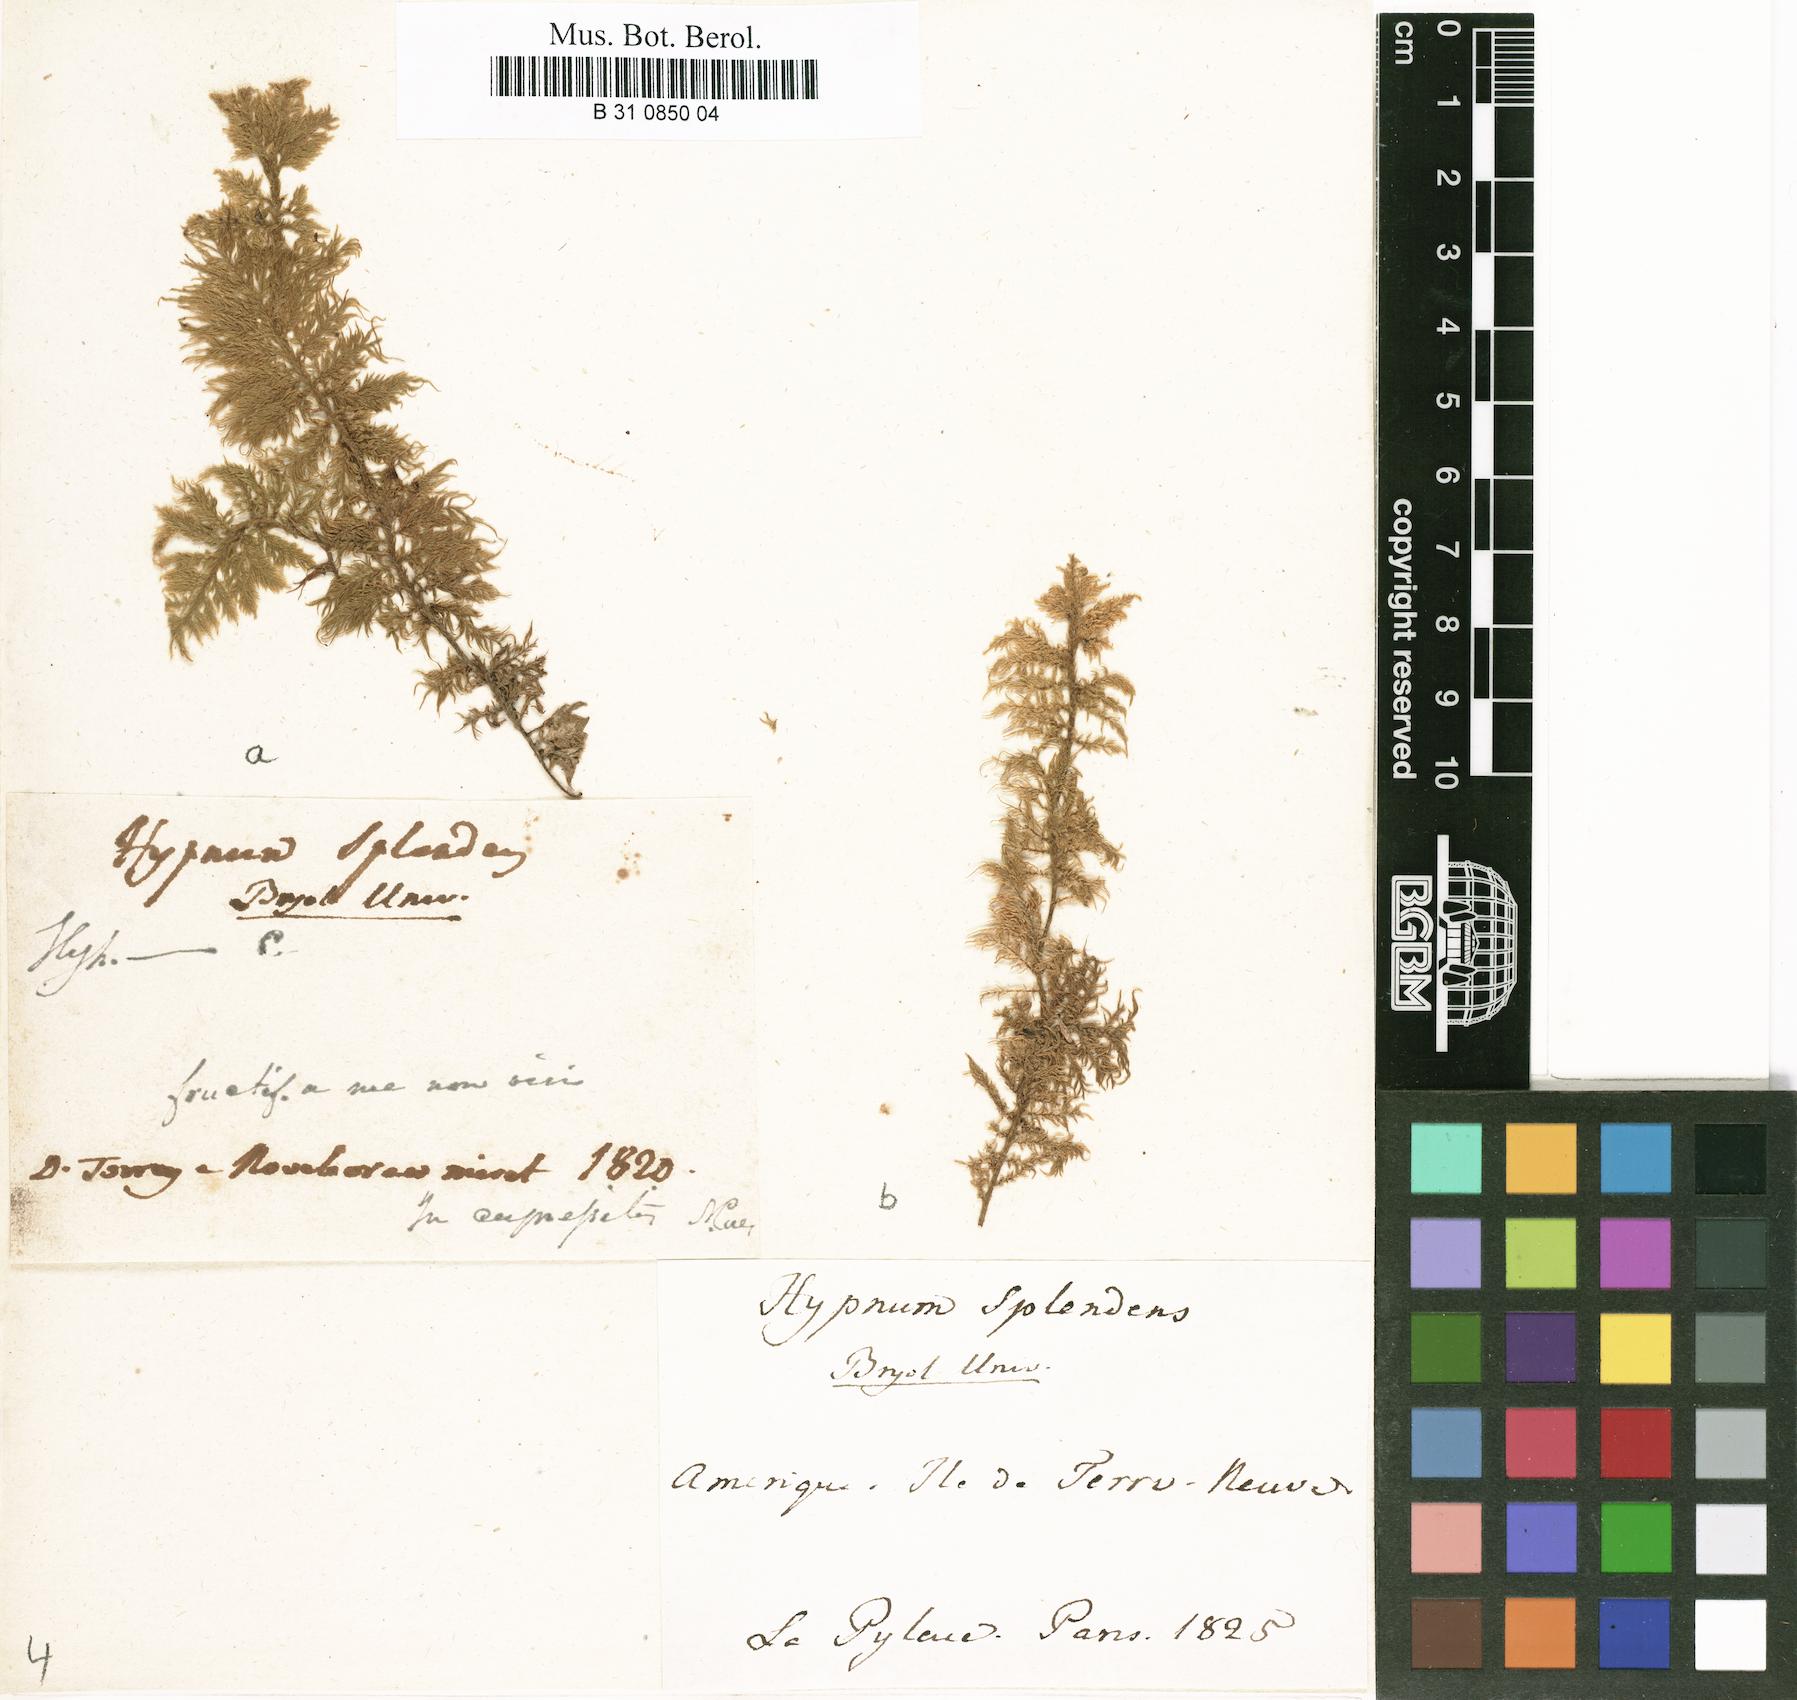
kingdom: Plantae
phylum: Bryophyta
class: Bryopsida
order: Hypnales
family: Hylocomiaceae
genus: Hylocomium
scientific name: Hylocomium splendens
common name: Stairstep moss
